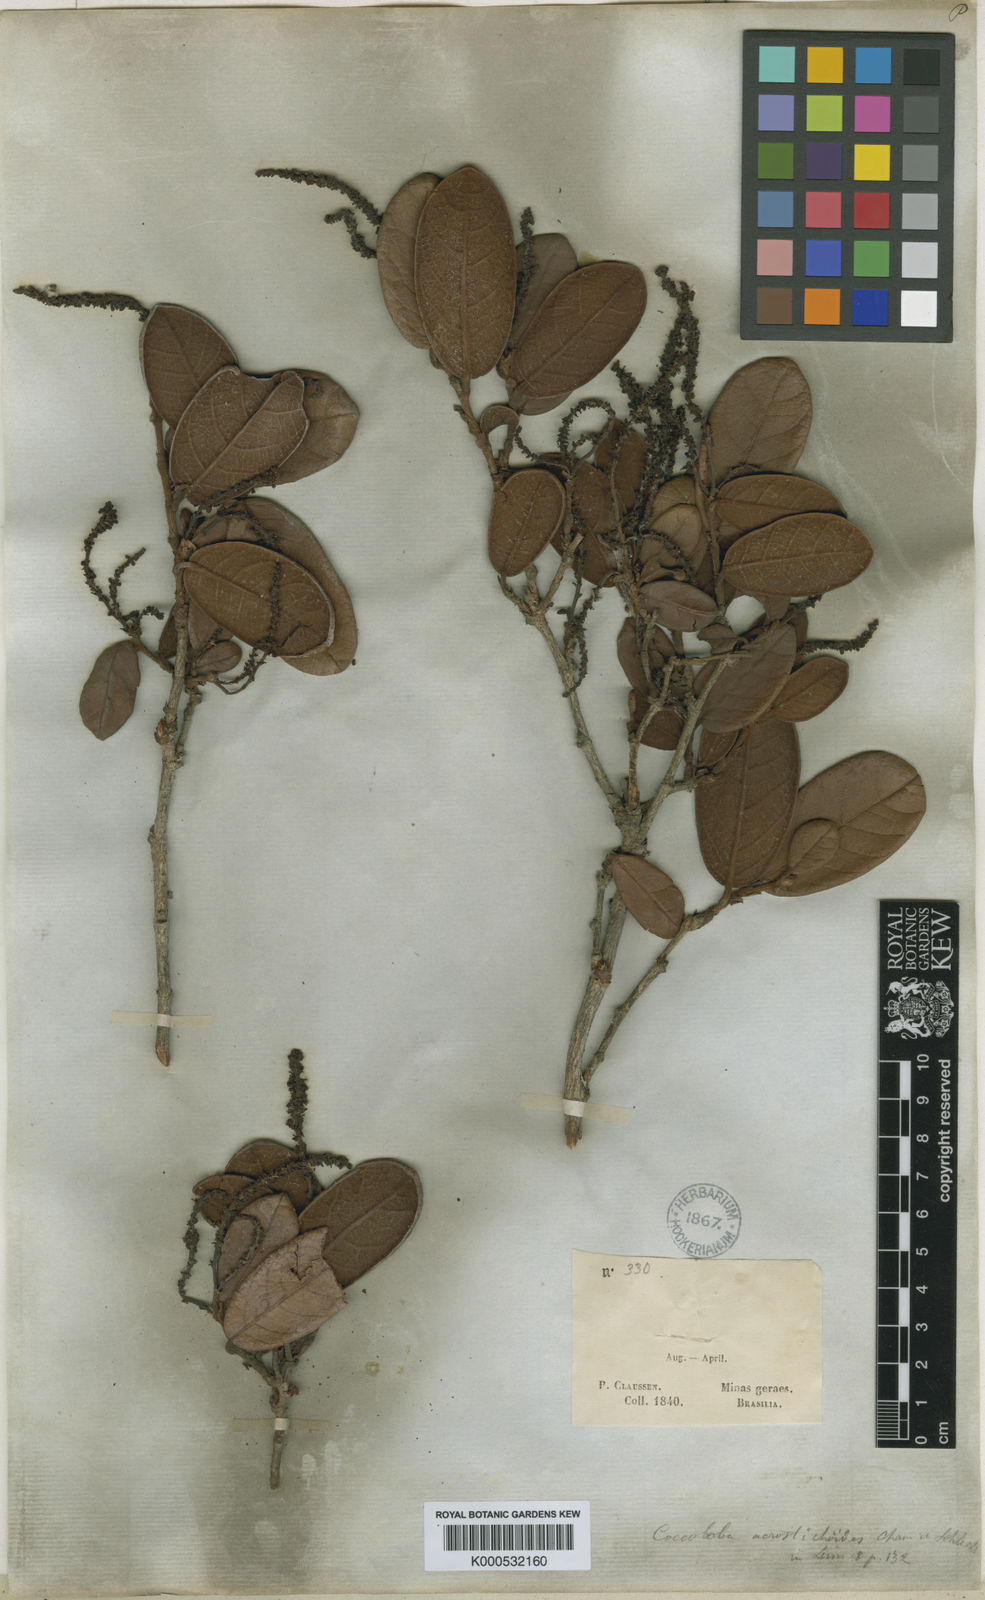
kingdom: Plantae
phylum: Tracheophyta
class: Magnoliopsida
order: Caryophyllales
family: Polygonaceae
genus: Coccoloba
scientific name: Coccoloba acrostichoides
